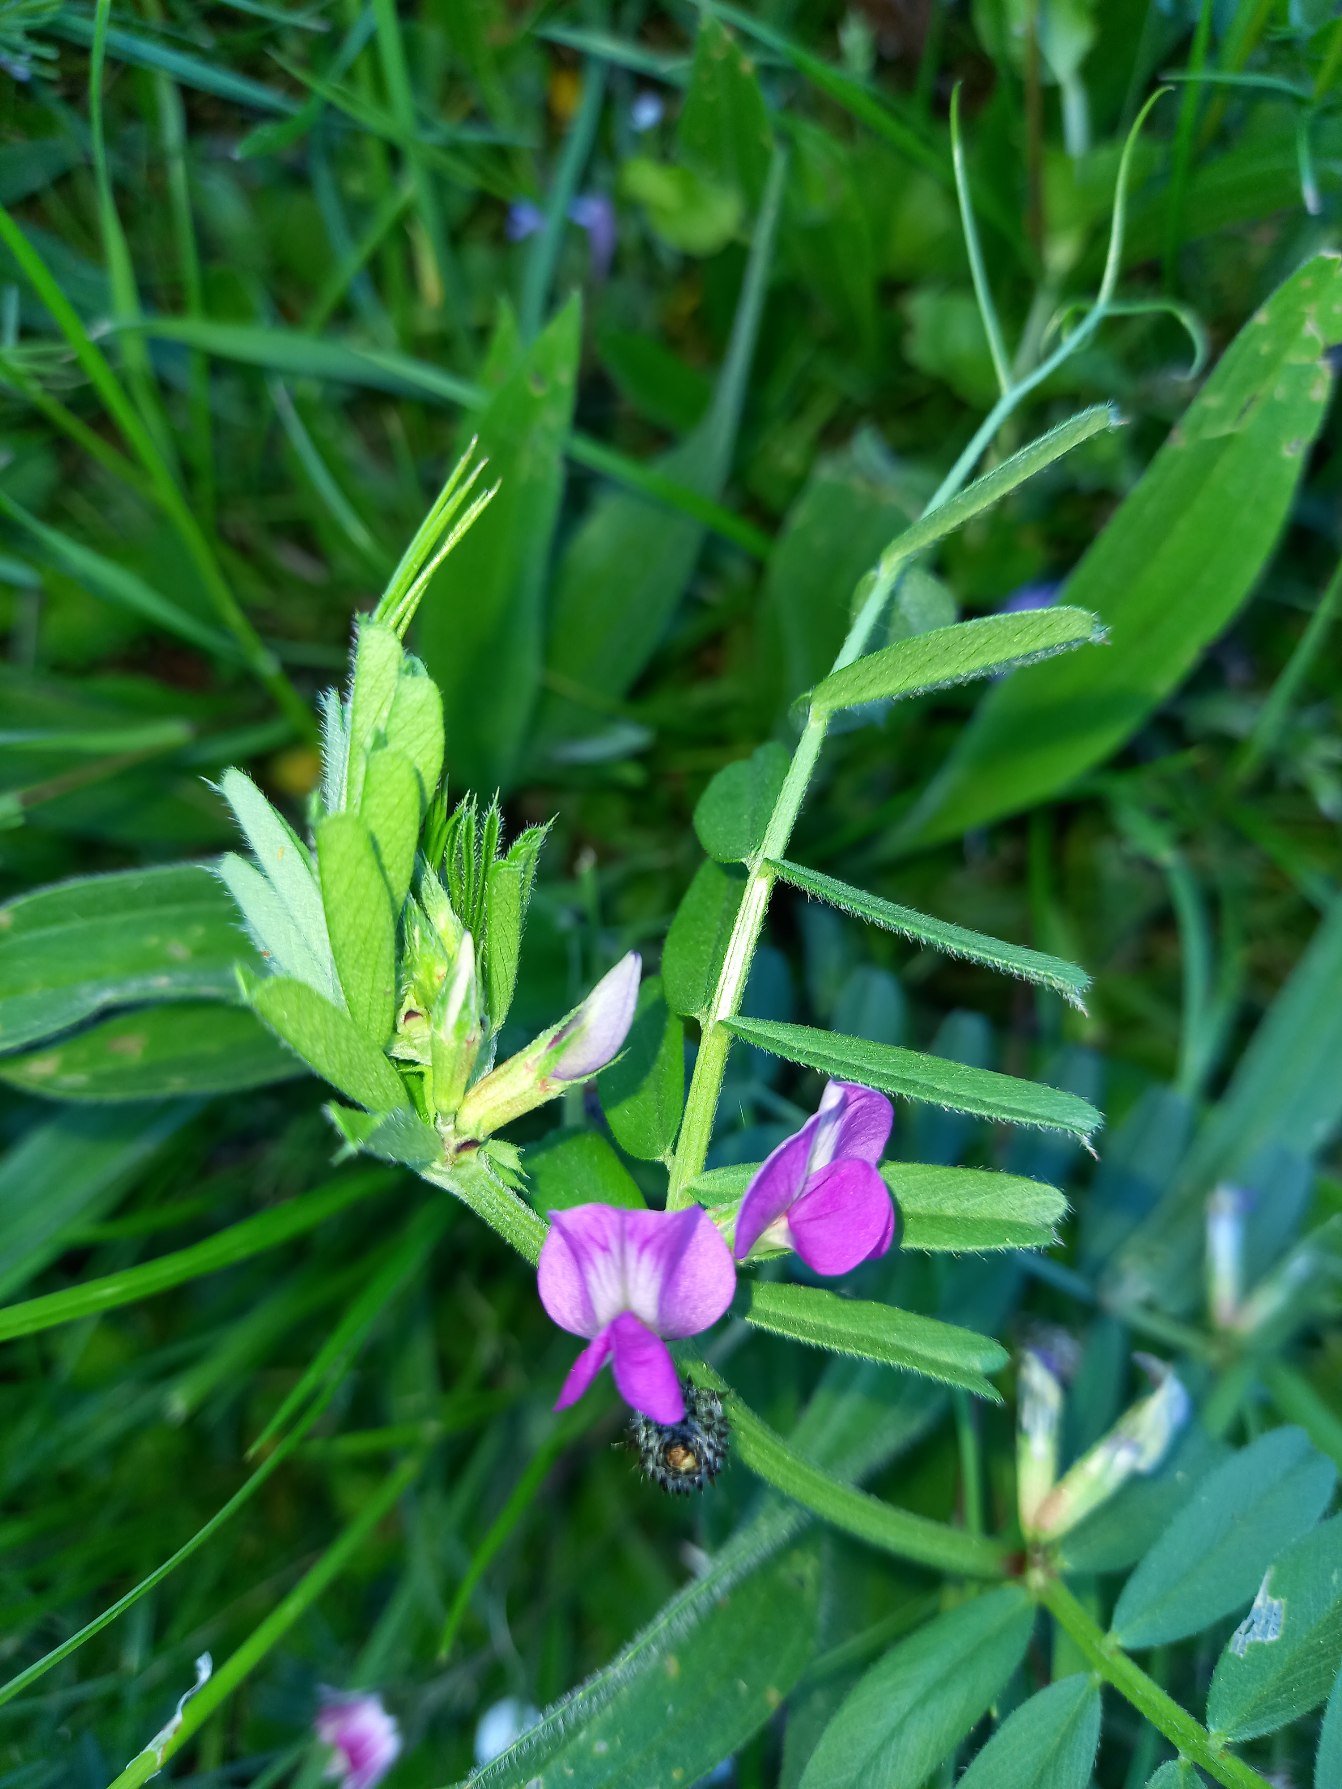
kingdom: Plantae
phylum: Tracheophyta
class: Magnoliopsida
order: Fabales
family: Fabaceae
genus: Vicia
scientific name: Vicia sativa
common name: Smalbladet vikke
